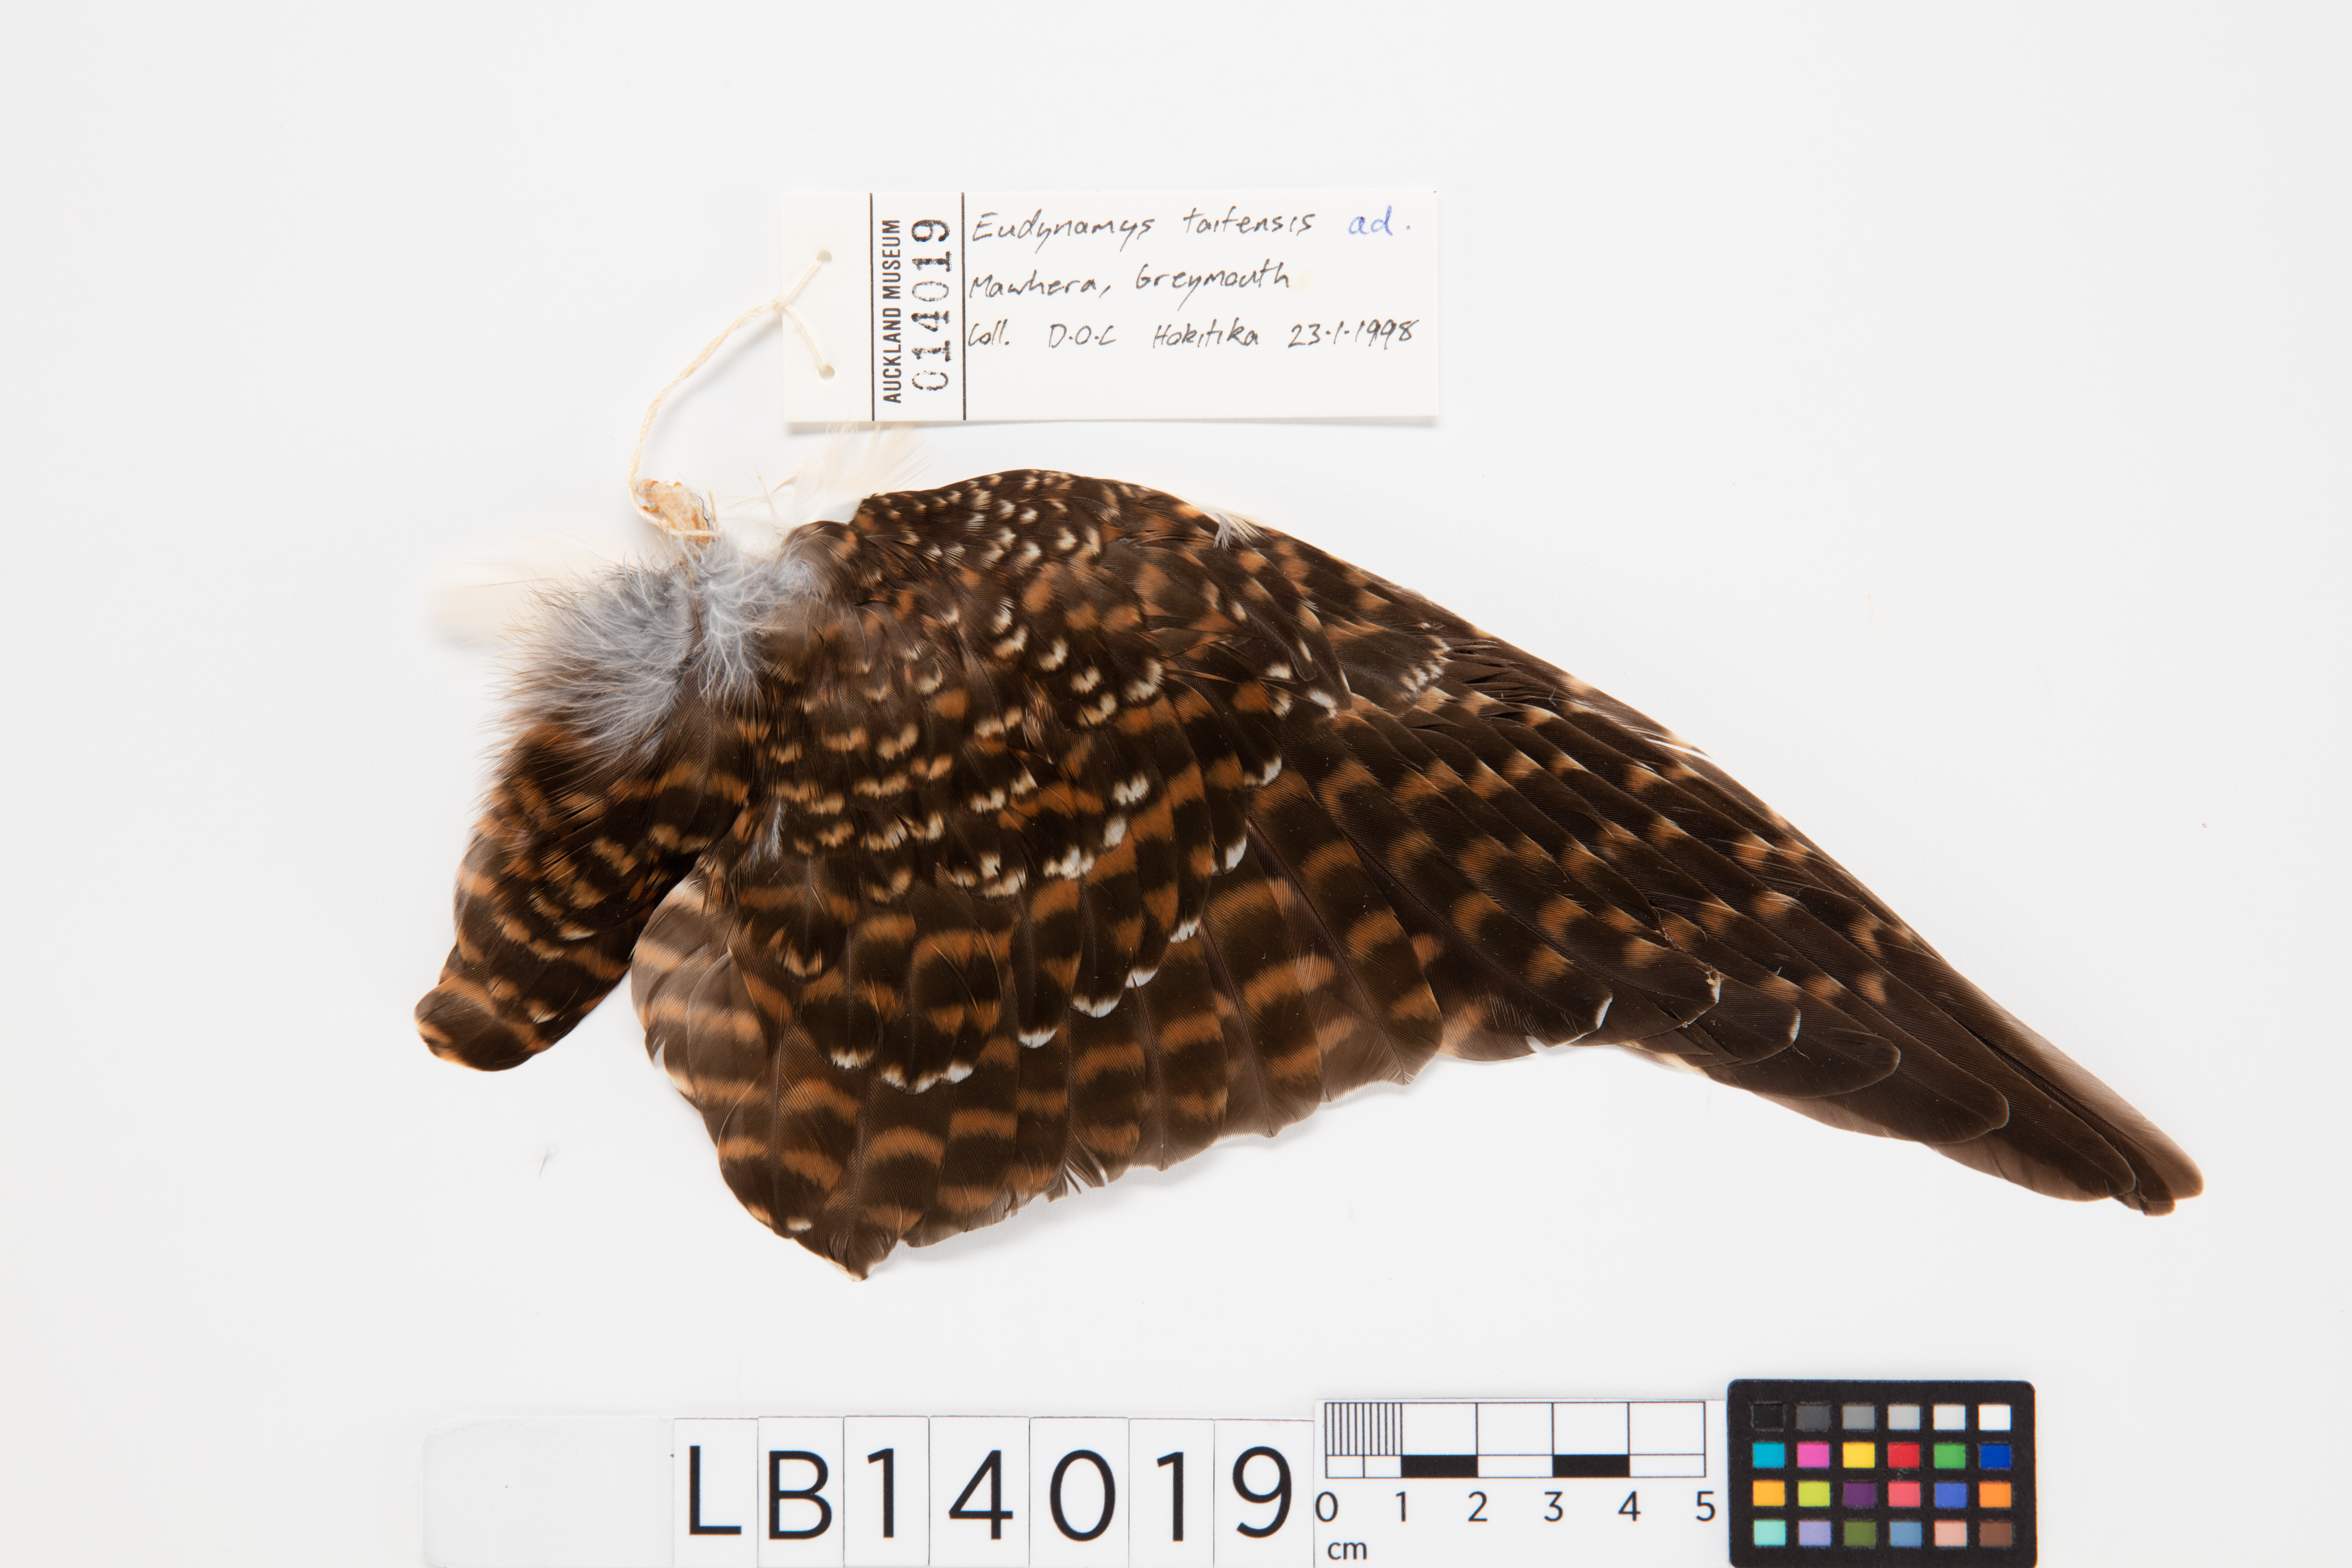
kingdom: Animalia
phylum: Chordata
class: Aves
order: Cuculiformes
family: Cuculidae
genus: Urodynamis
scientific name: Urodynamis taitensis
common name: Long-tailed koel
